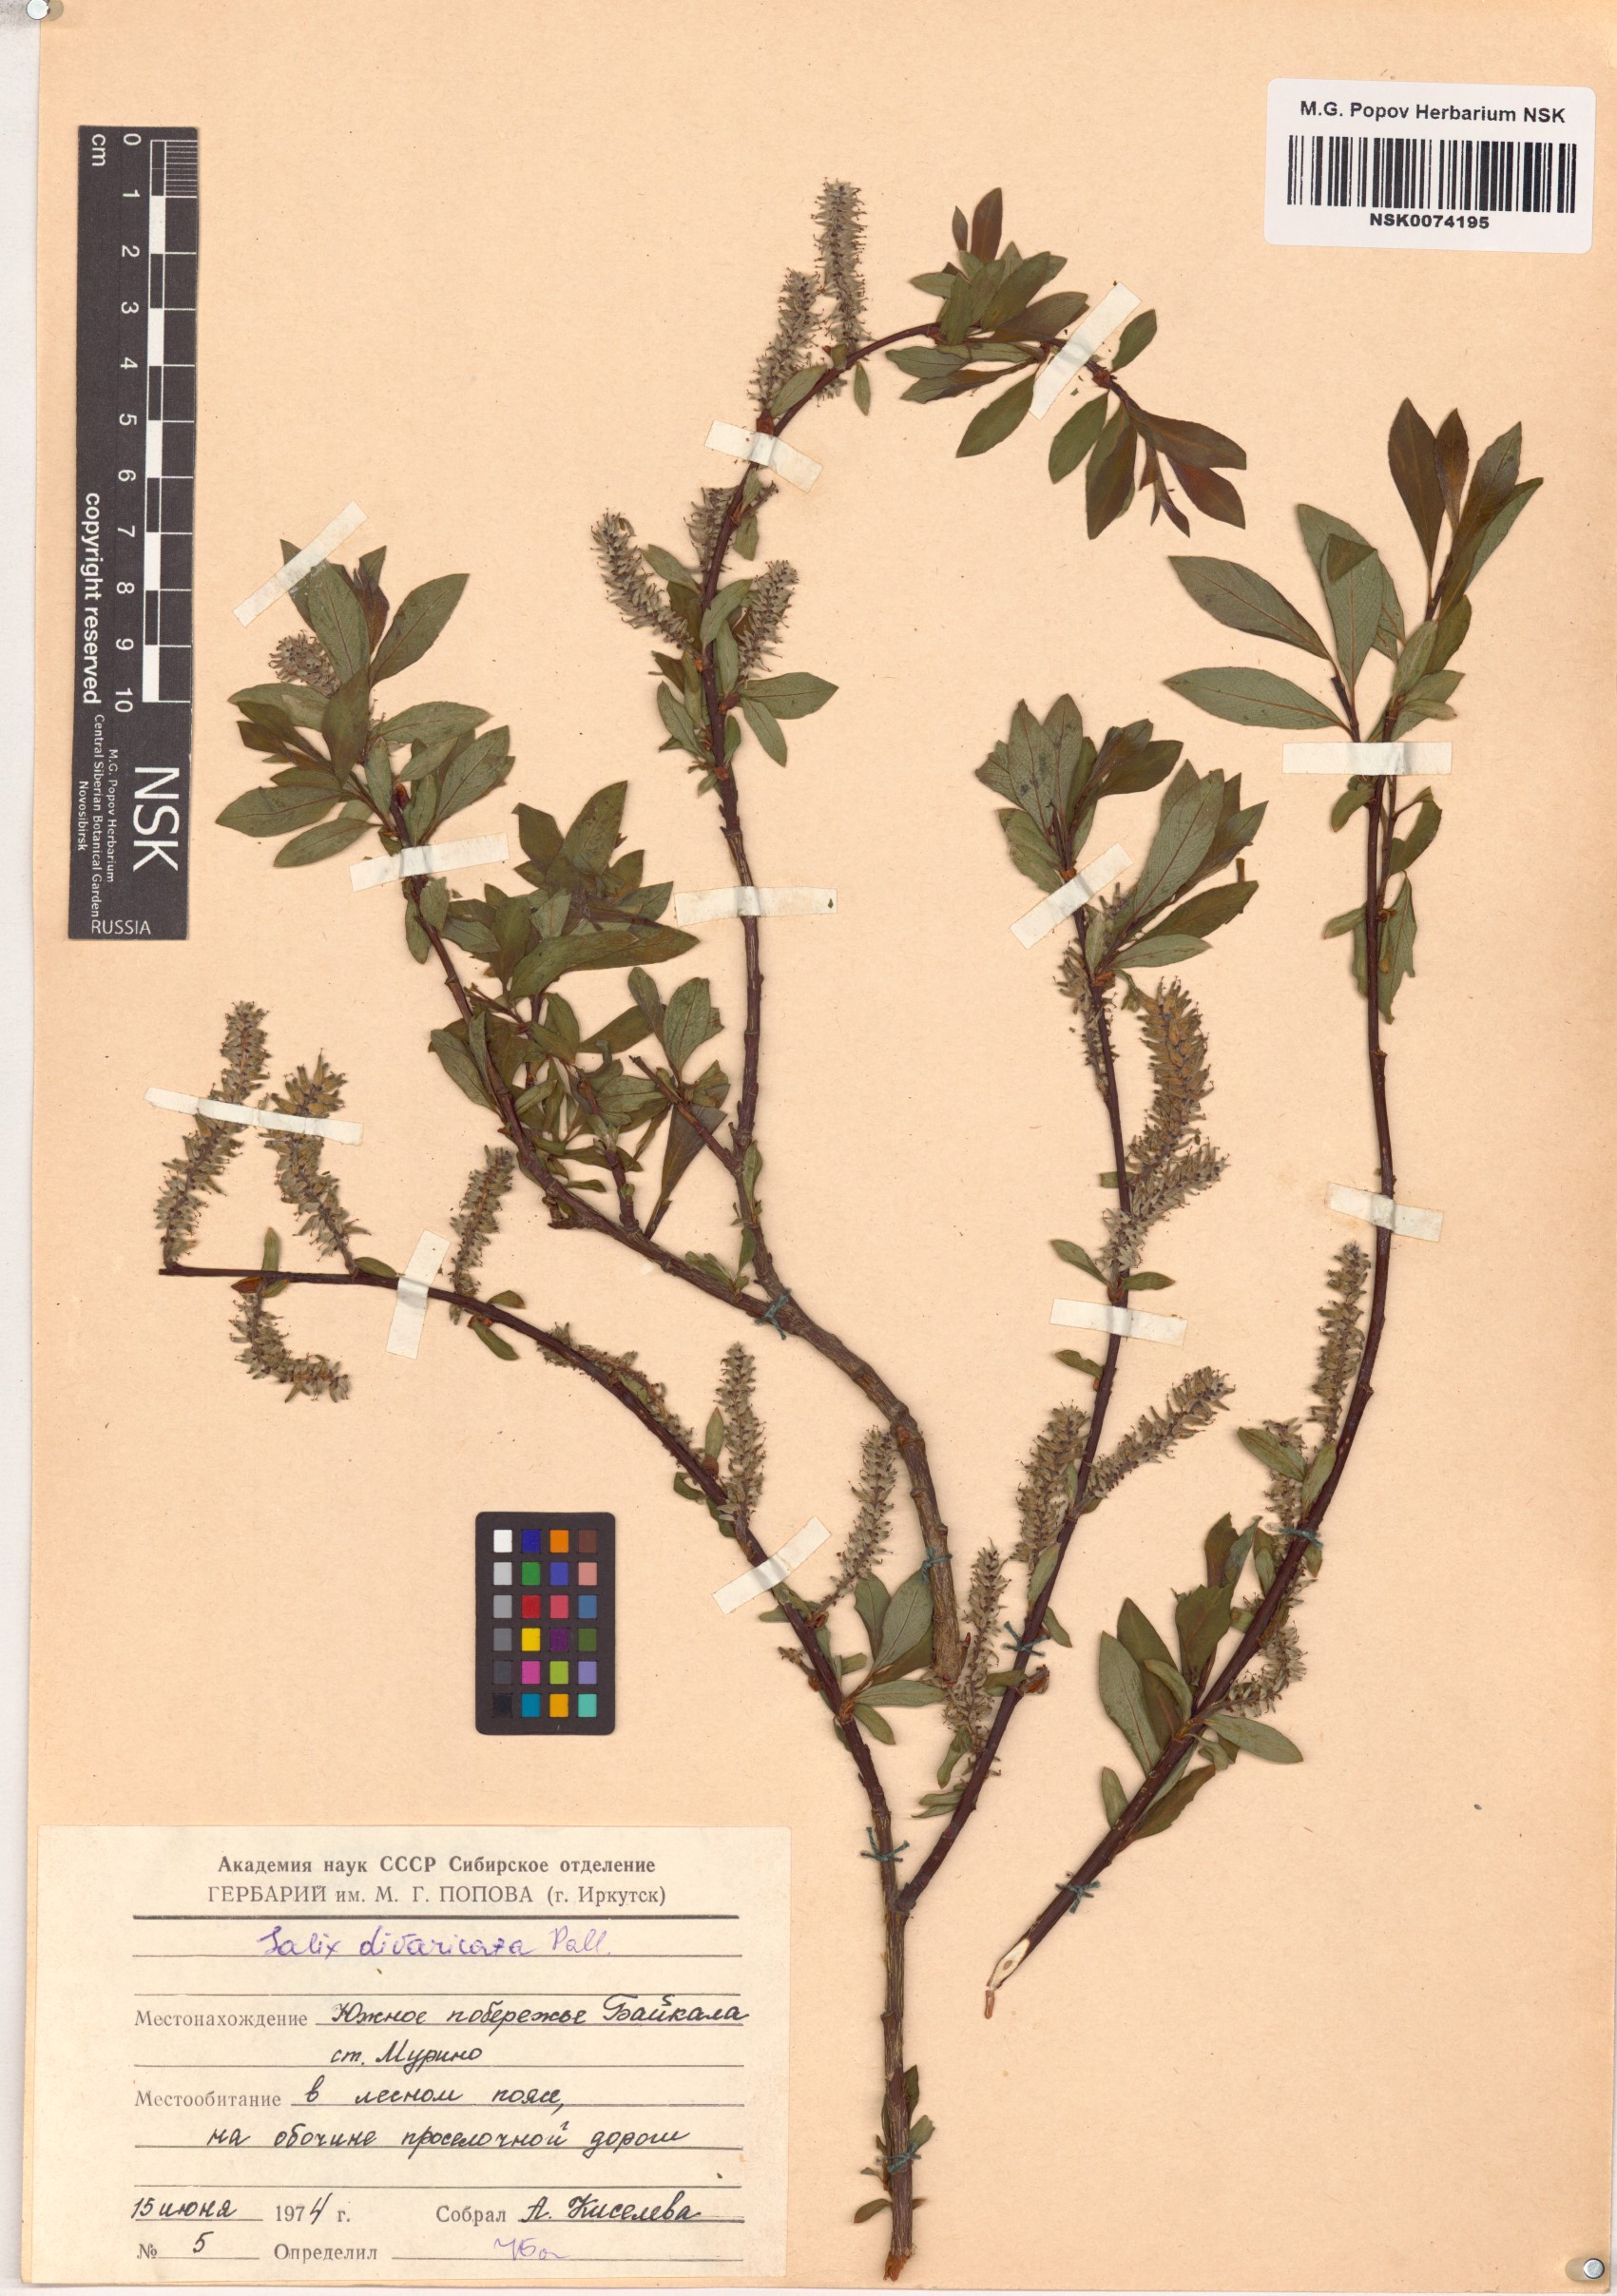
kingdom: Plantae
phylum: Tracheophyta
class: Magnoliopsida
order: Malpighiales
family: Salicaceae
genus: Salix
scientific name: Salix divaricata
